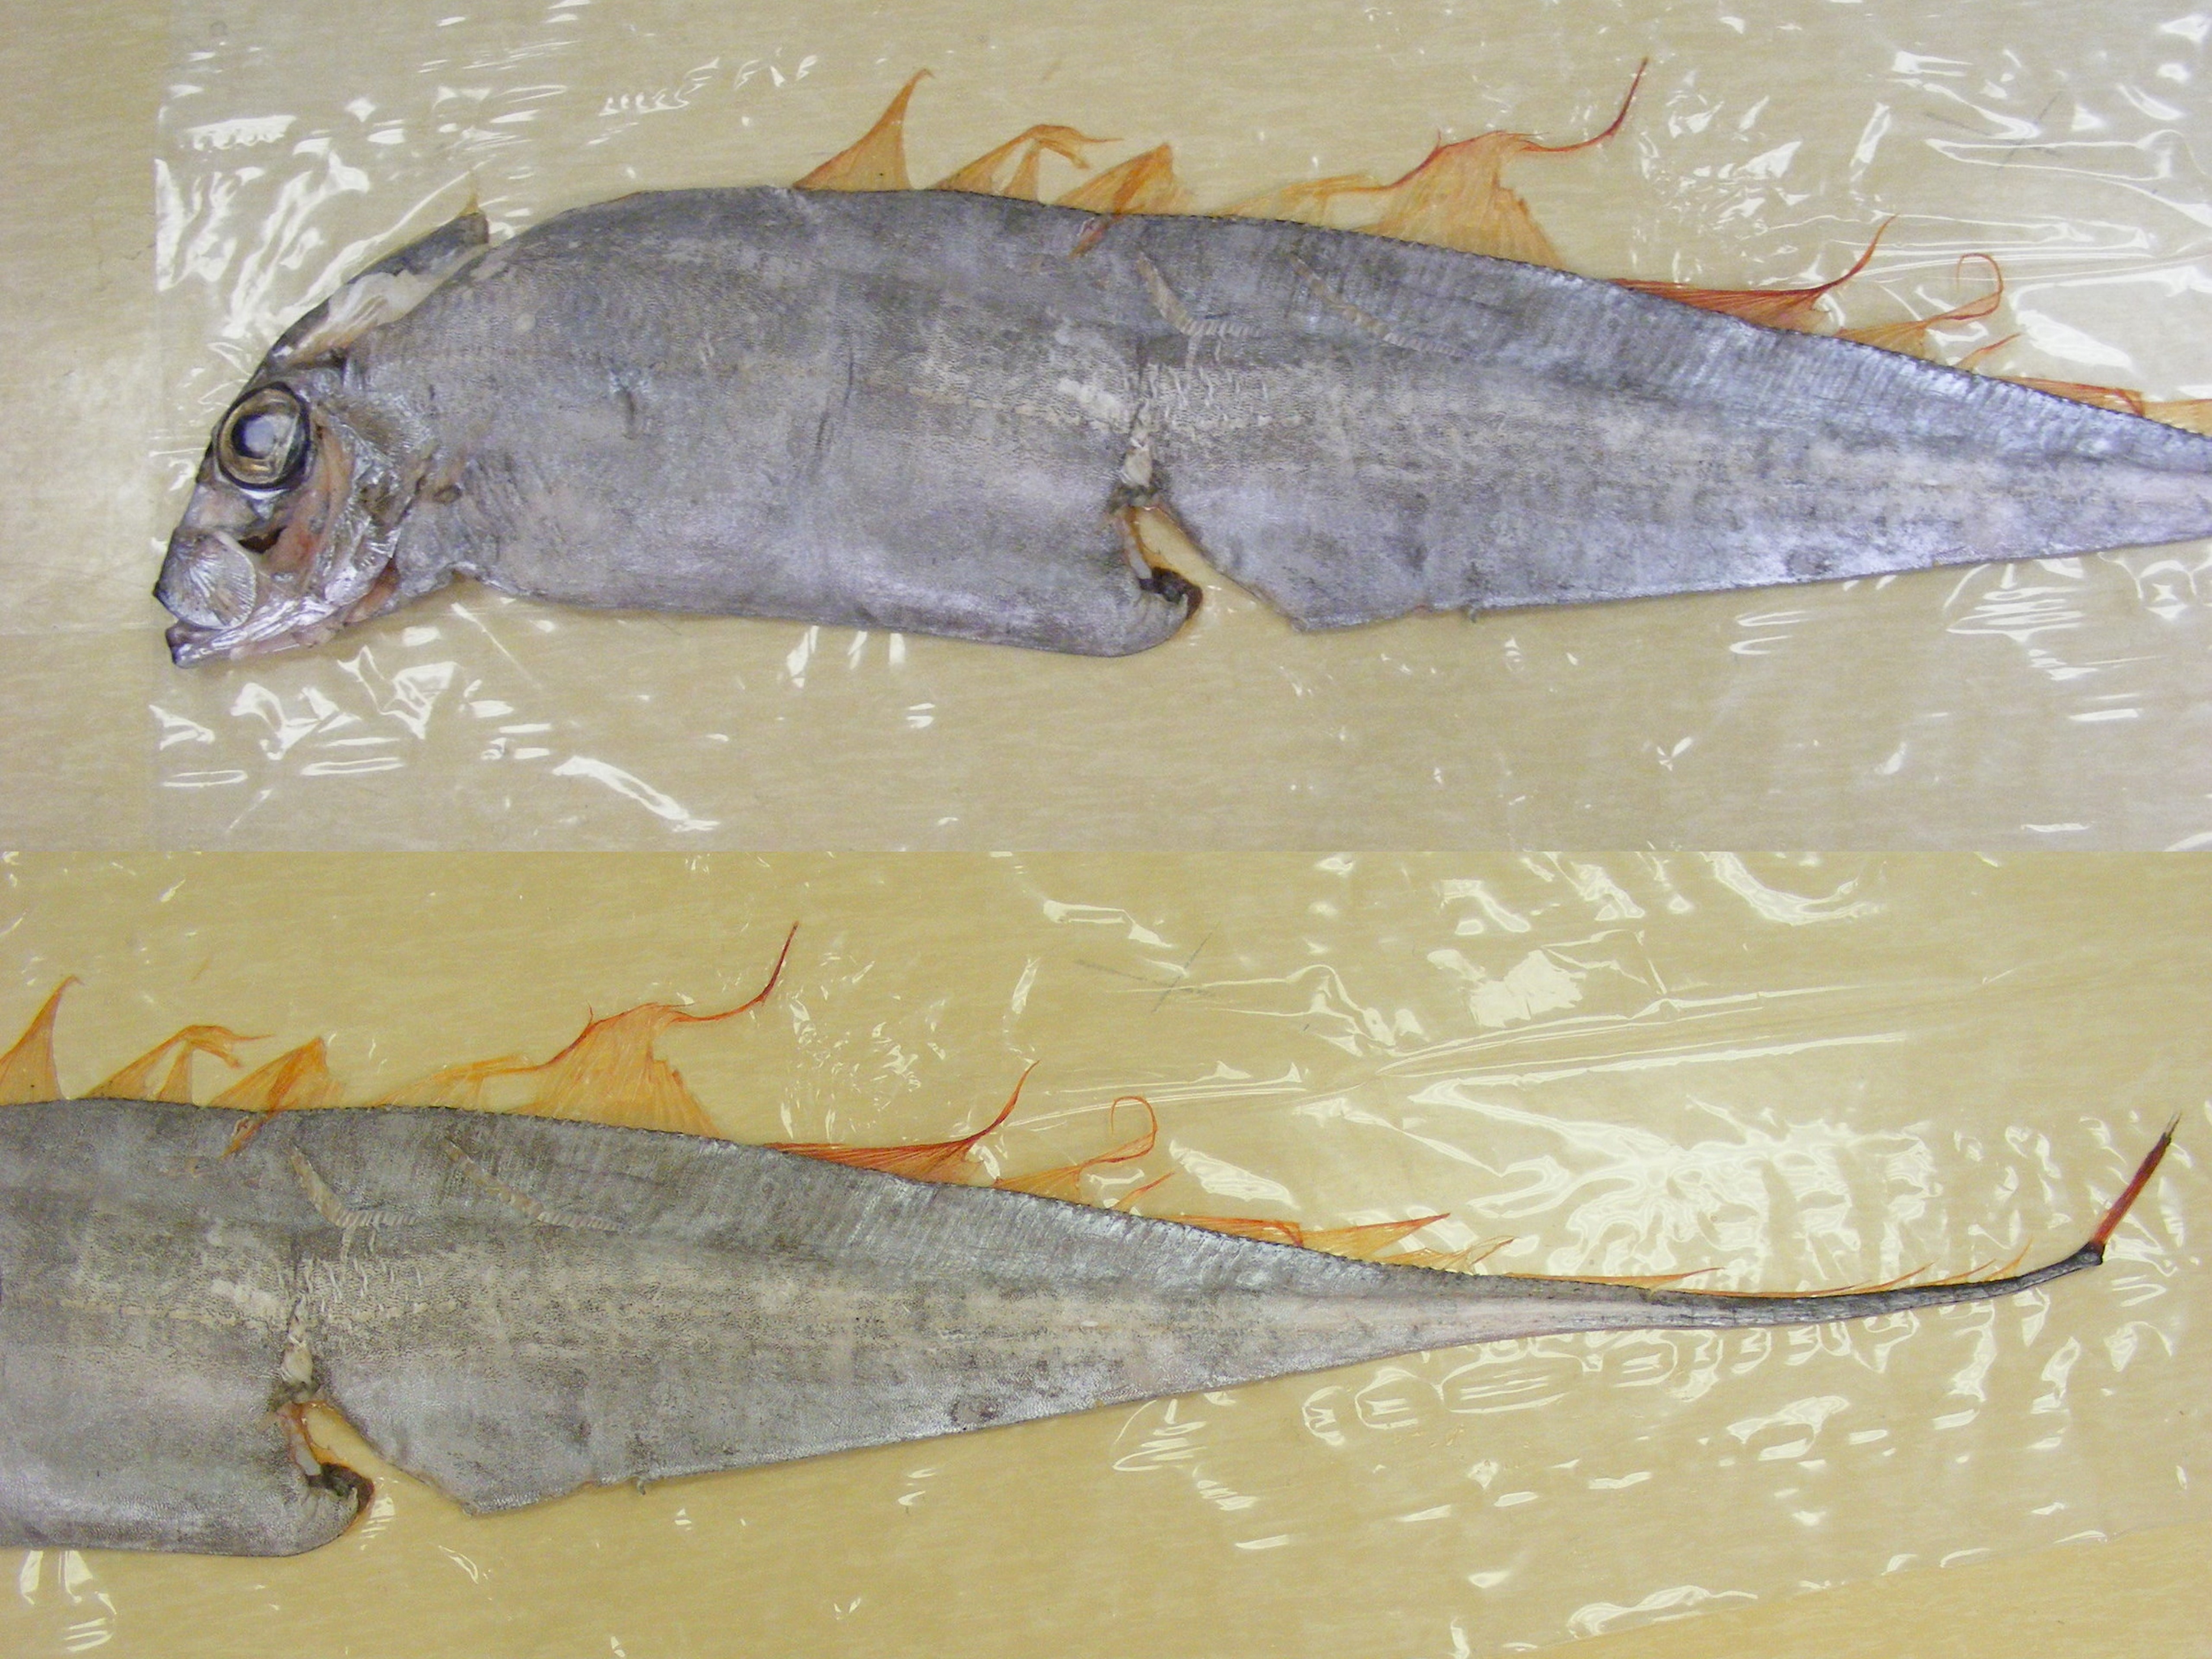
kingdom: Animalia
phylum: Chordata
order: Lampriformes
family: Trachipteridae
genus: Trachipterus
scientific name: Trachipterus trachypterus
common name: Dealfish
